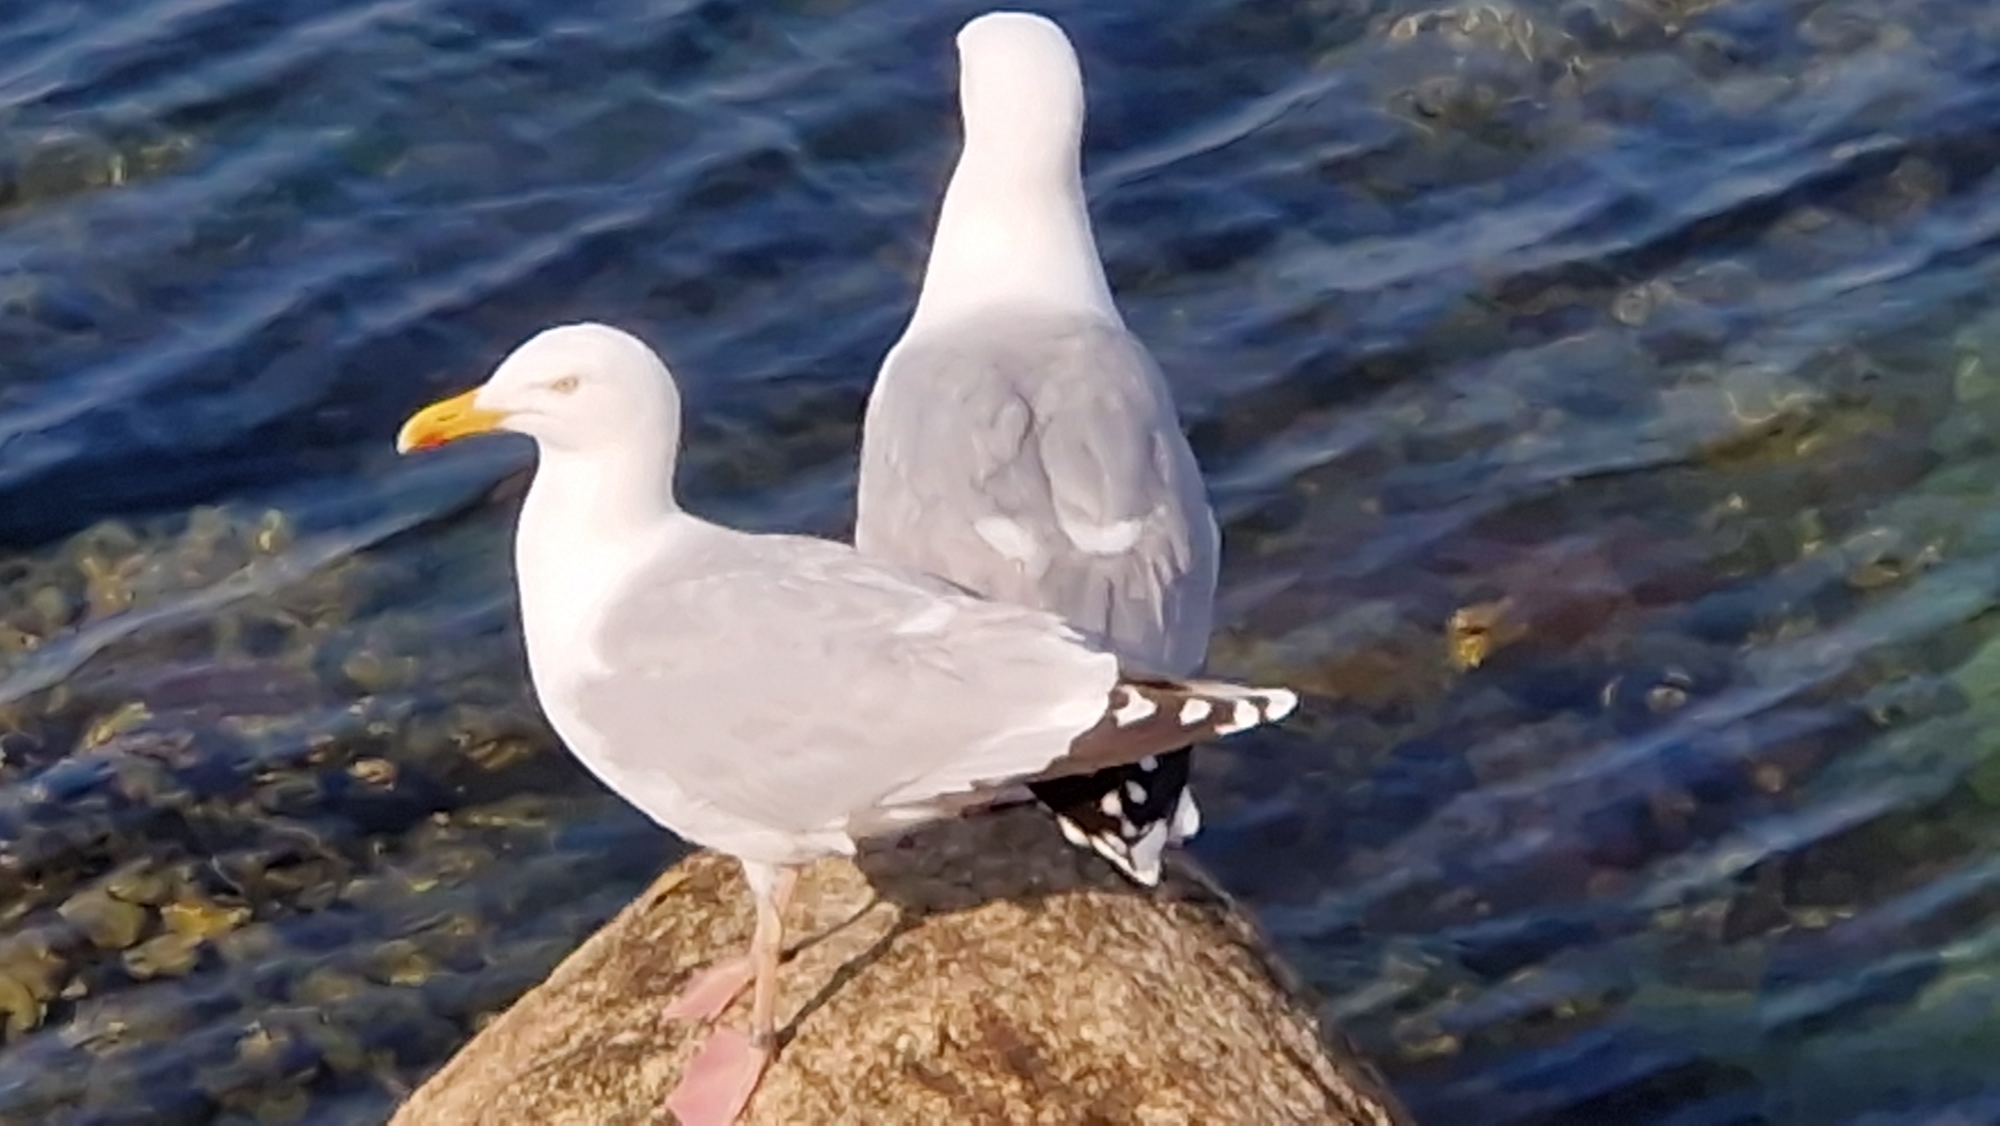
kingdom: Animalia
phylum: Chordata
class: Aves
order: Charadriiformes
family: Laridae
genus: Larus
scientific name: Larus argentatus
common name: Sølvmåge
